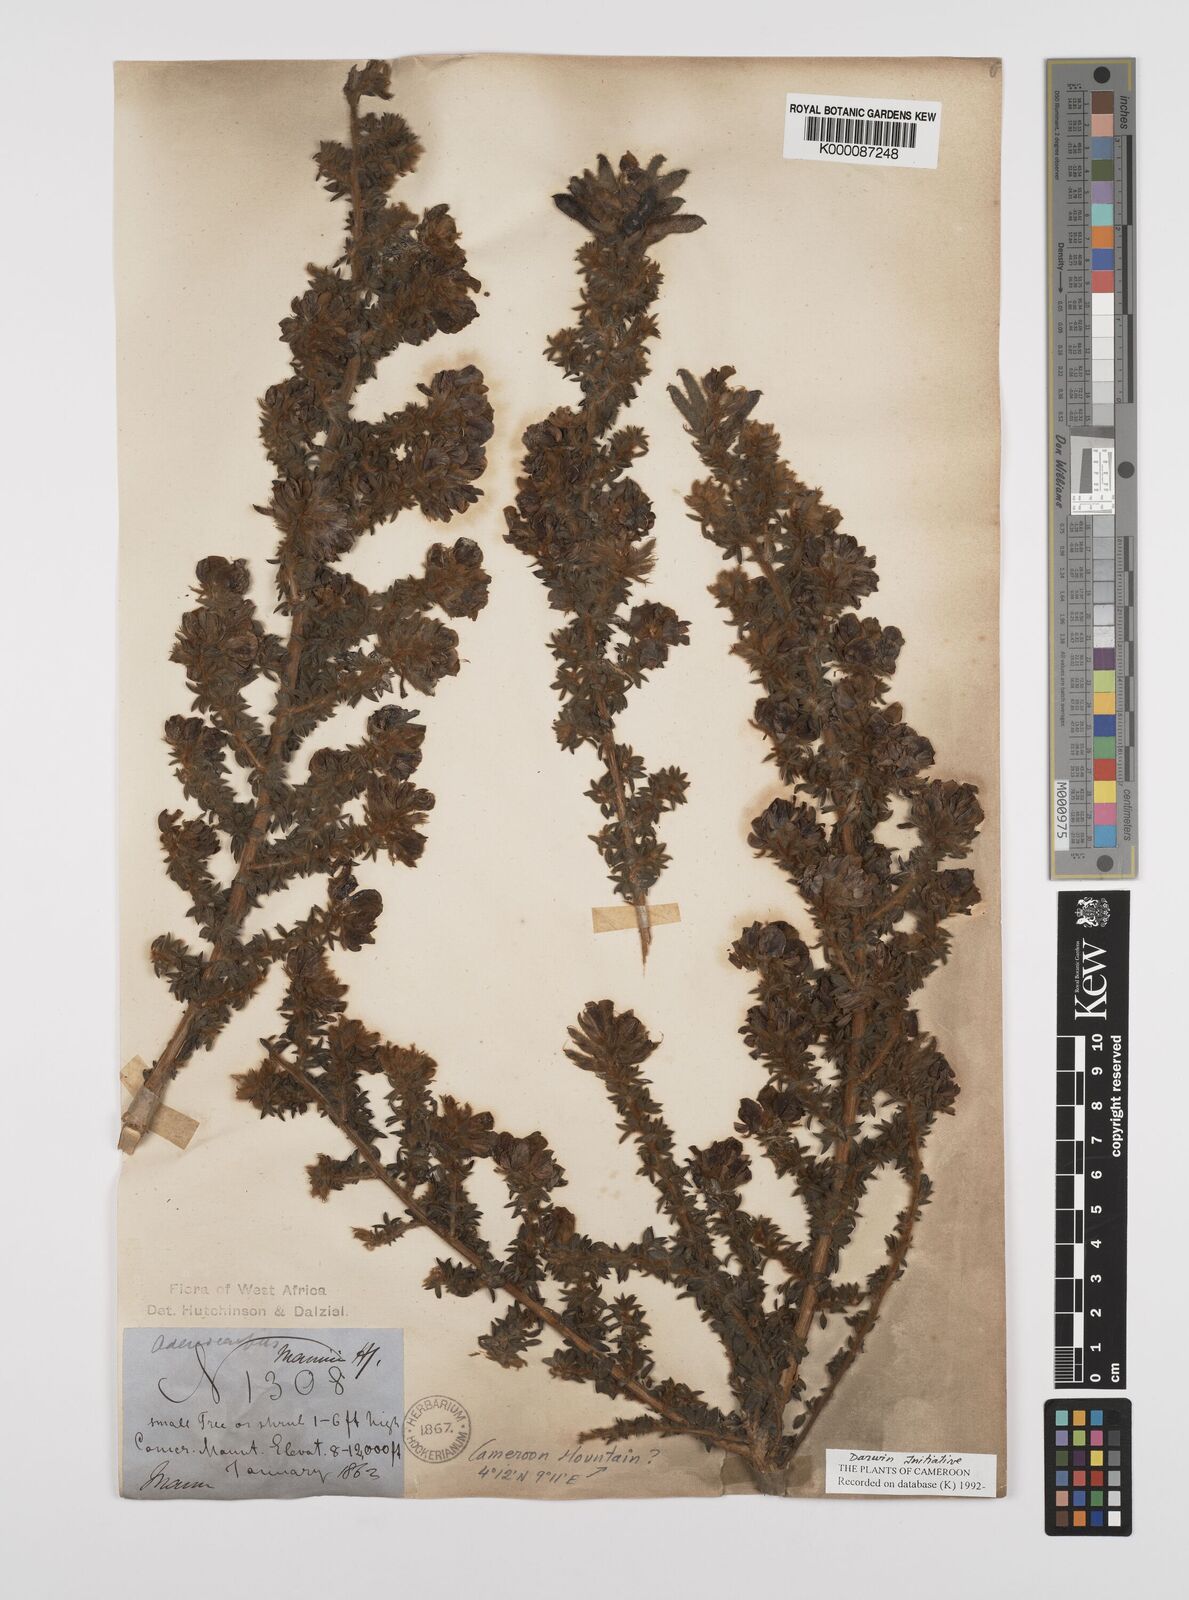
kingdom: Plantae
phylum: Tracheophyta
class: Magnoliopsida
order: Fabales
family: Fabaceae
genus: Adenocarpus
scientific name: Adenocarpus mannii
